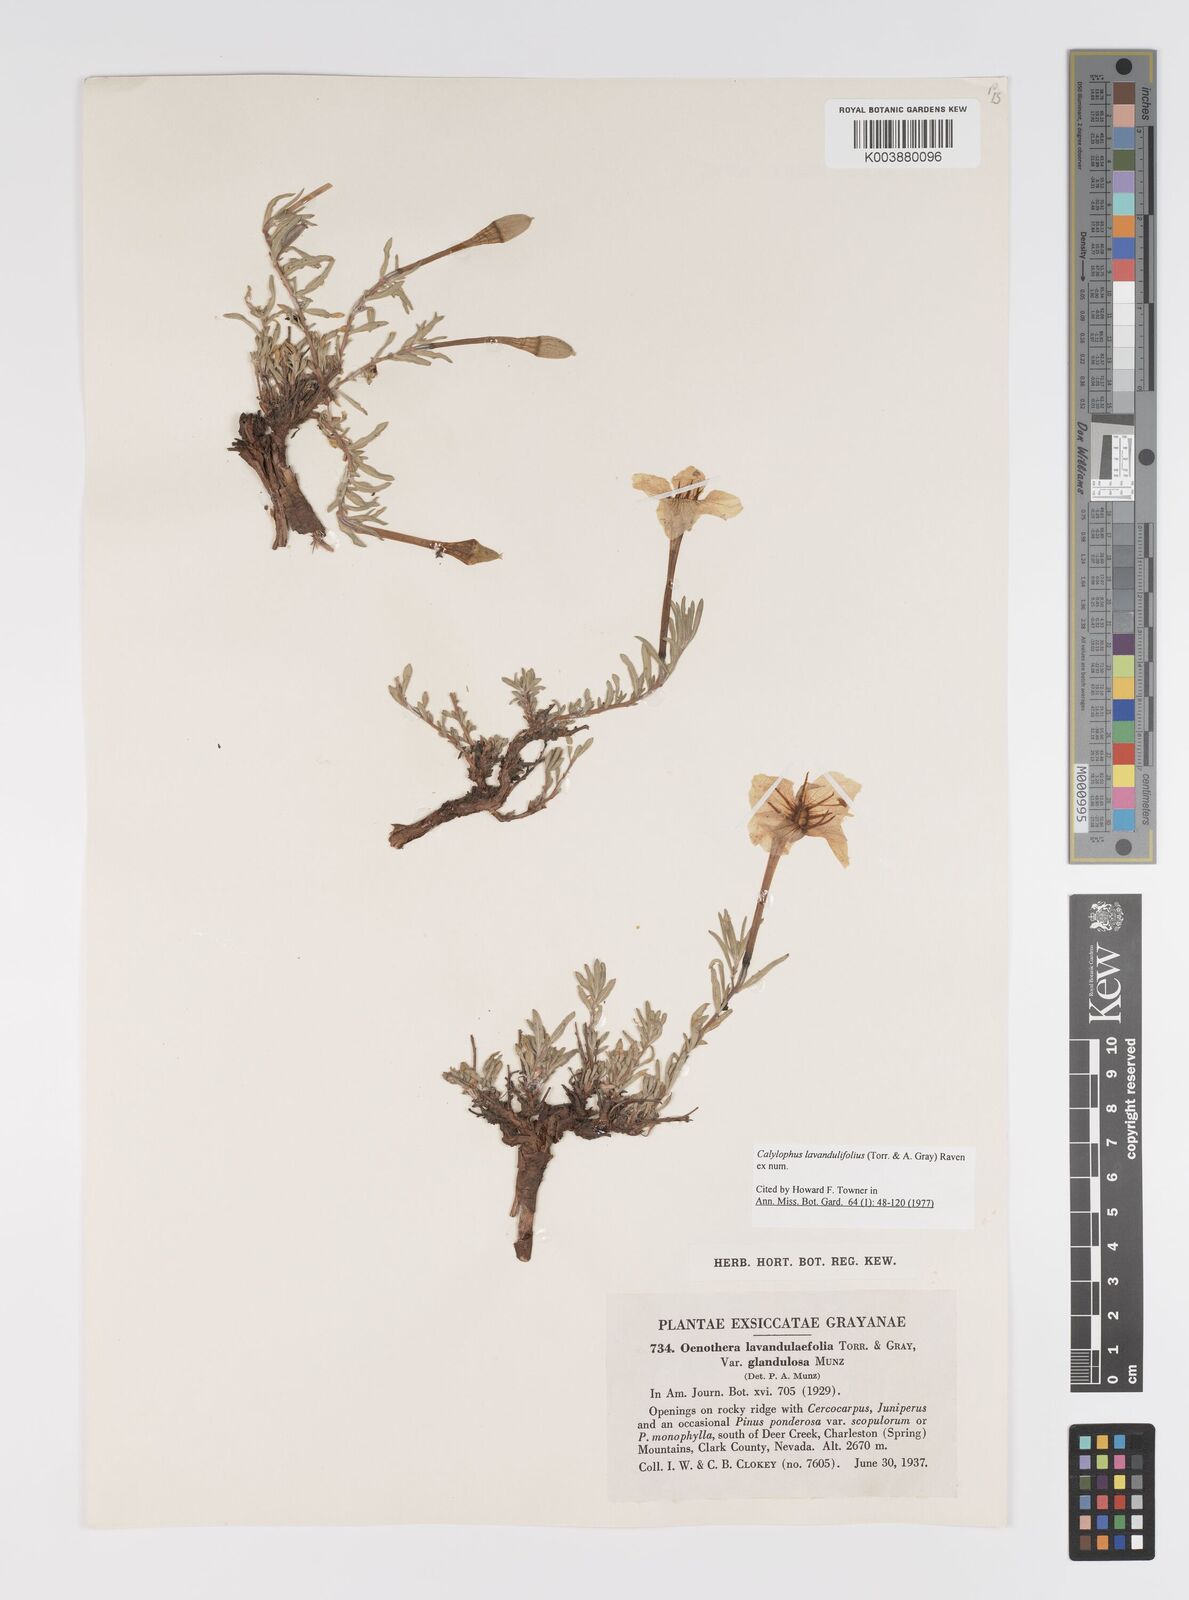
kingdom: Plantae
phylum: Tracheophyta
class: Magnoliopsida
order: Myrtales
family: Onagraceae
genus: Oenothera
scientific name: Oenothera lavandulifolia
